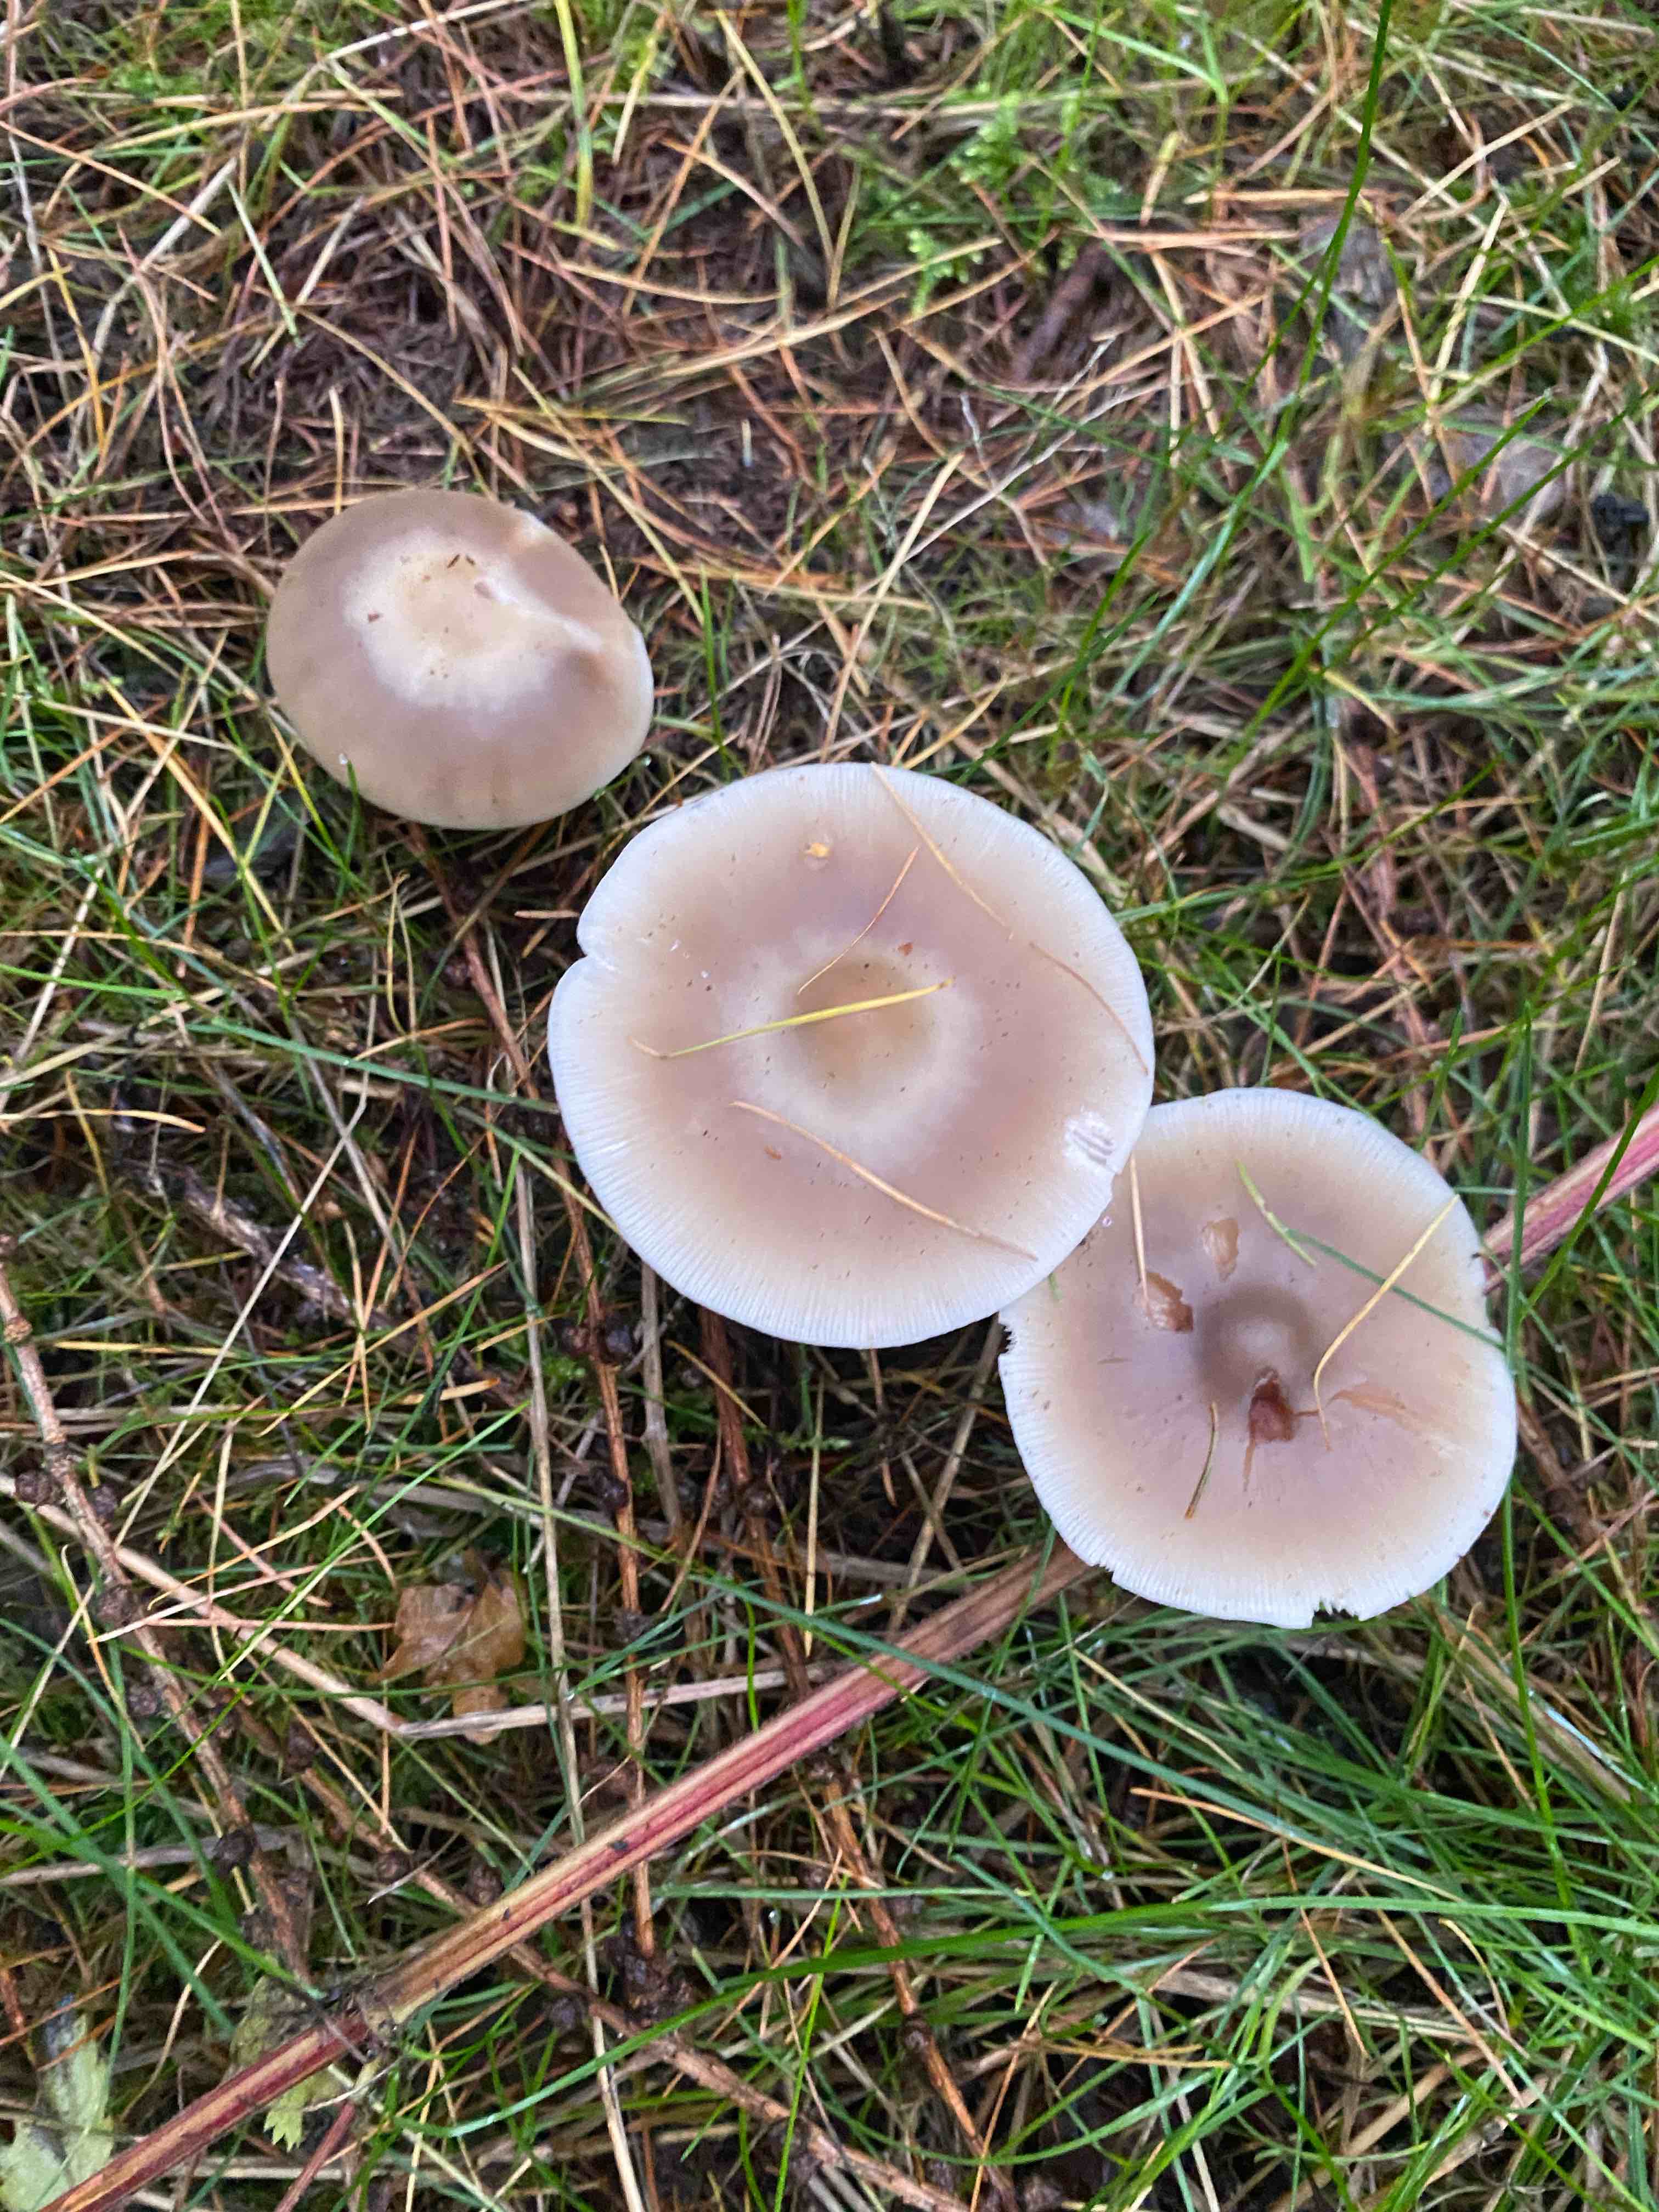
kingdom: Fungi
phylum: Basidiomycota
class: Agaricomycetes
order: Agaricales
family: Omphalotaceae
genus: Rhodocollybia
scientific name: Rhodocollybia asema
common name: horngrå fladhat
